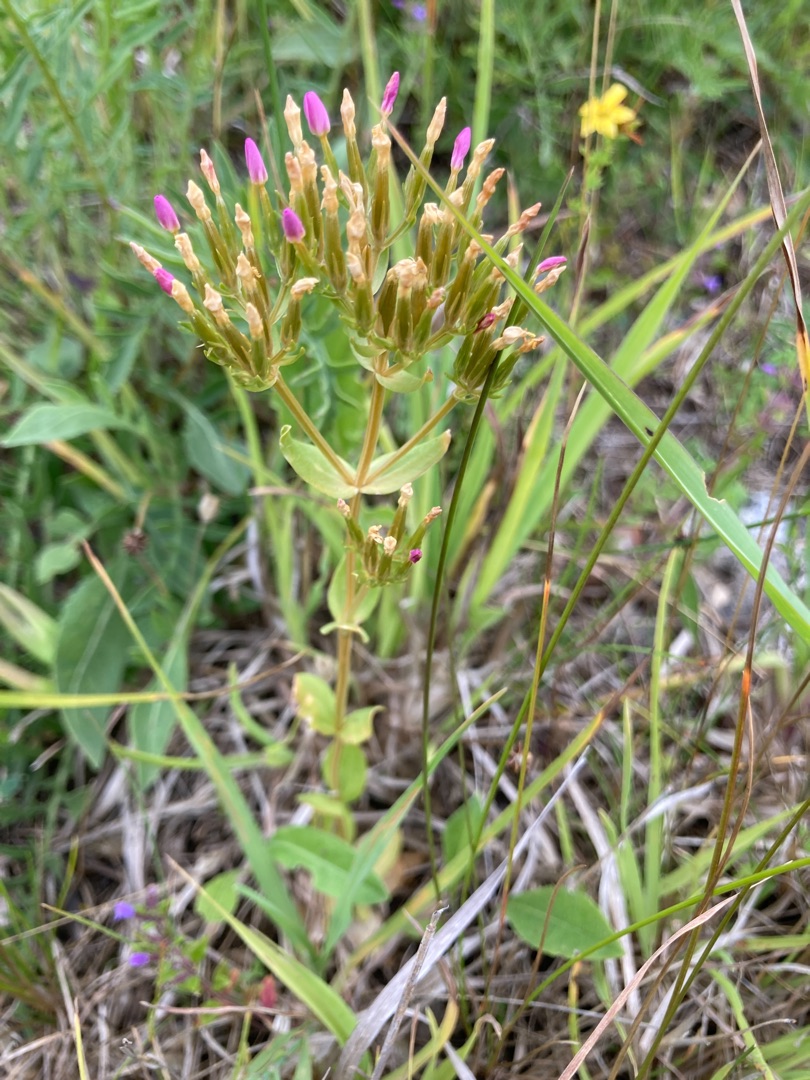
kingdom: Plantae
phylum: Tracheophyta
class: Magnoliopsida
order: Gentianales
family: Gentianaceae
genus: Centaurium
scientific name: Centaurium erythraea
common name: Mark-tusindgylden
